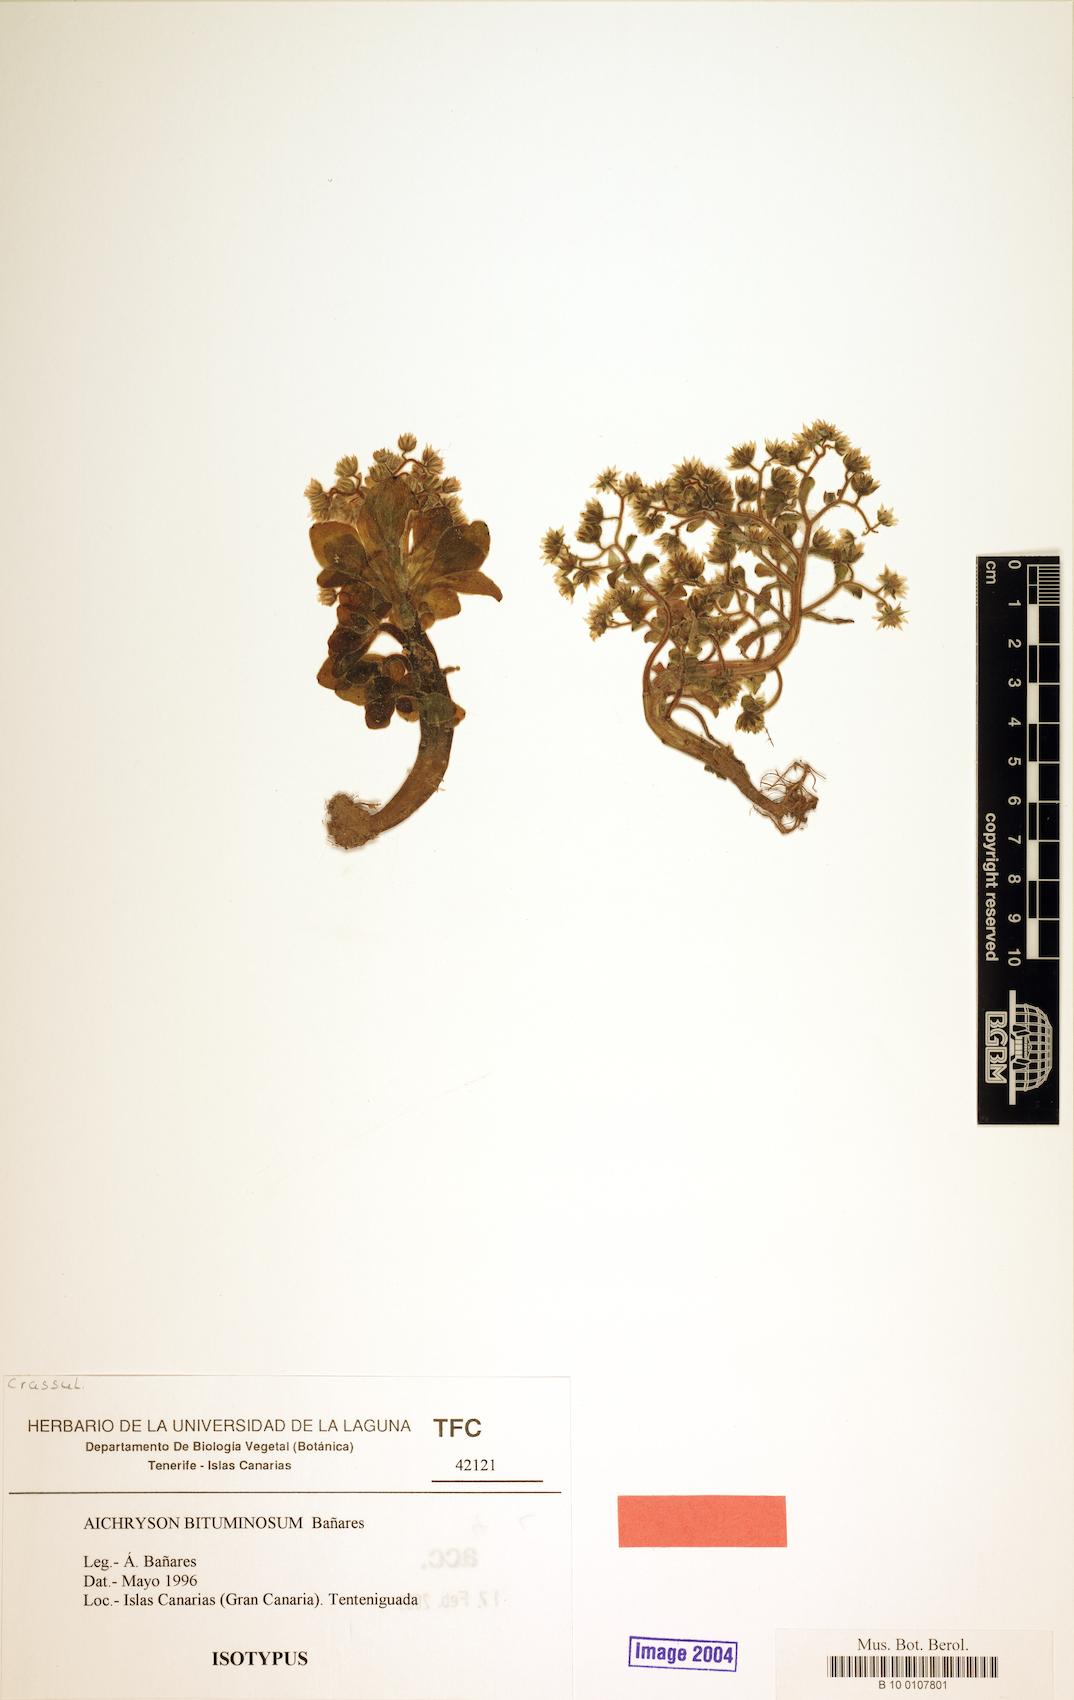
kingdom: Plantae
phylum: Tracheophyta
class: Magnoliopsida
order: Saxifragales
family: Crassulaceae
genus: Aichryson
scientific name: Aichryson bituminosum
